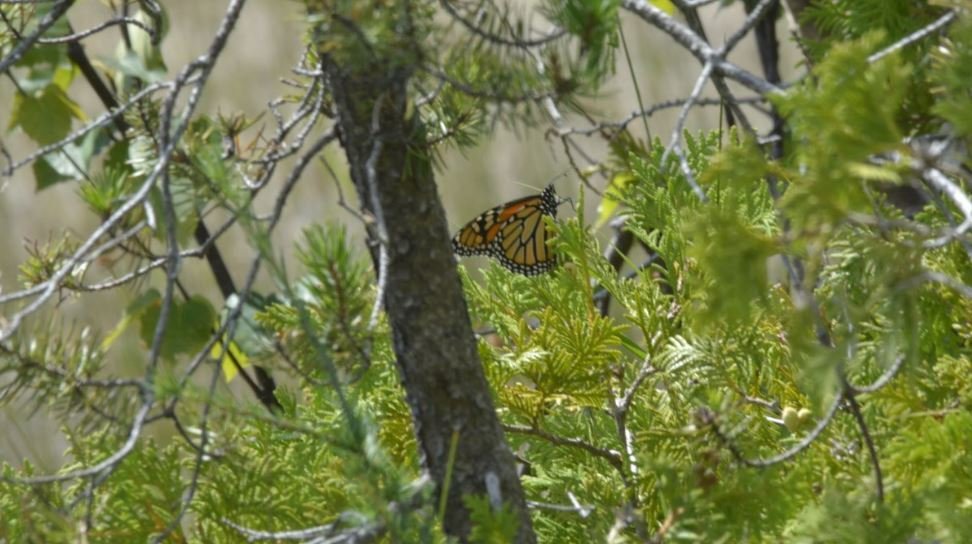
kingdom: Animalia
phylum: Arthropoda
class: Insecta
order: Lepidoptera
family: Nymphalidae
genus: Danaus
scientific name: Danaus plexippus
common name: Monarch
